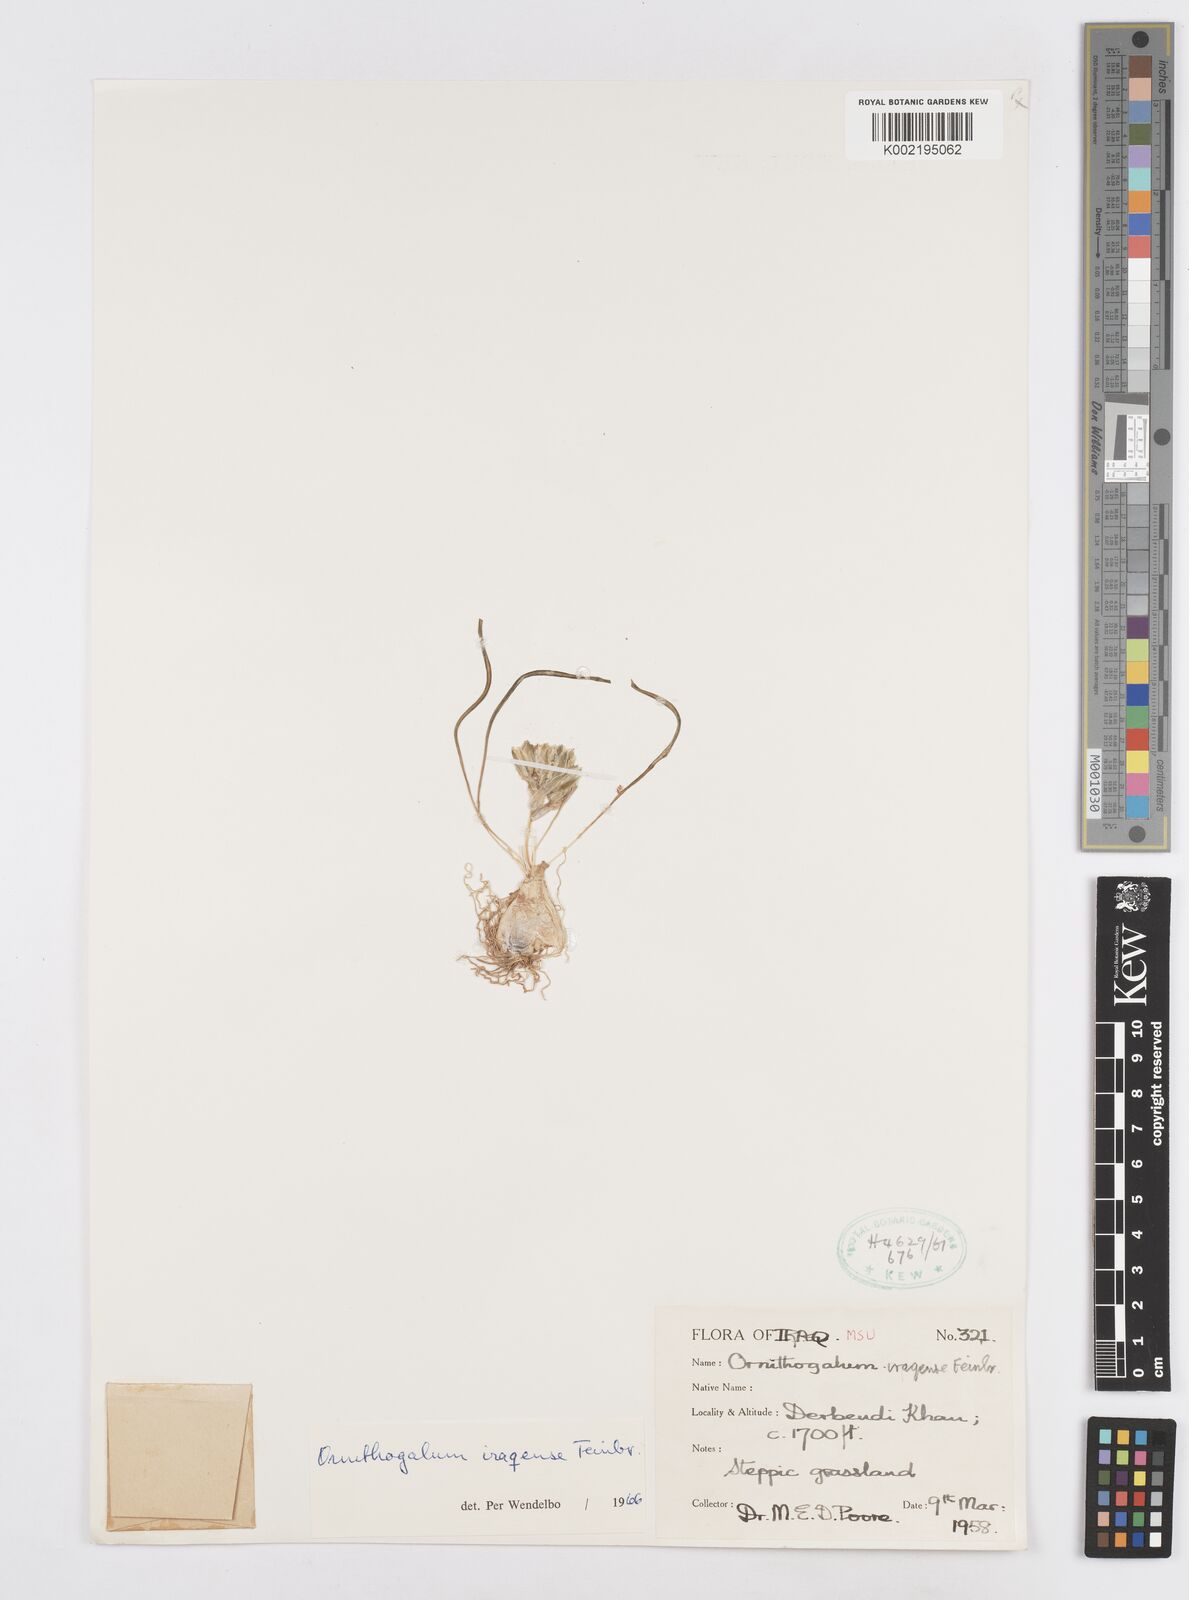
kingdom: Plantae
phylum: Tracheophyta
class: Liliopsida
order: Asparagales
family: Asparagaceae
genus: Ornithogalum
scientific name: Ornithogalum iraqense
